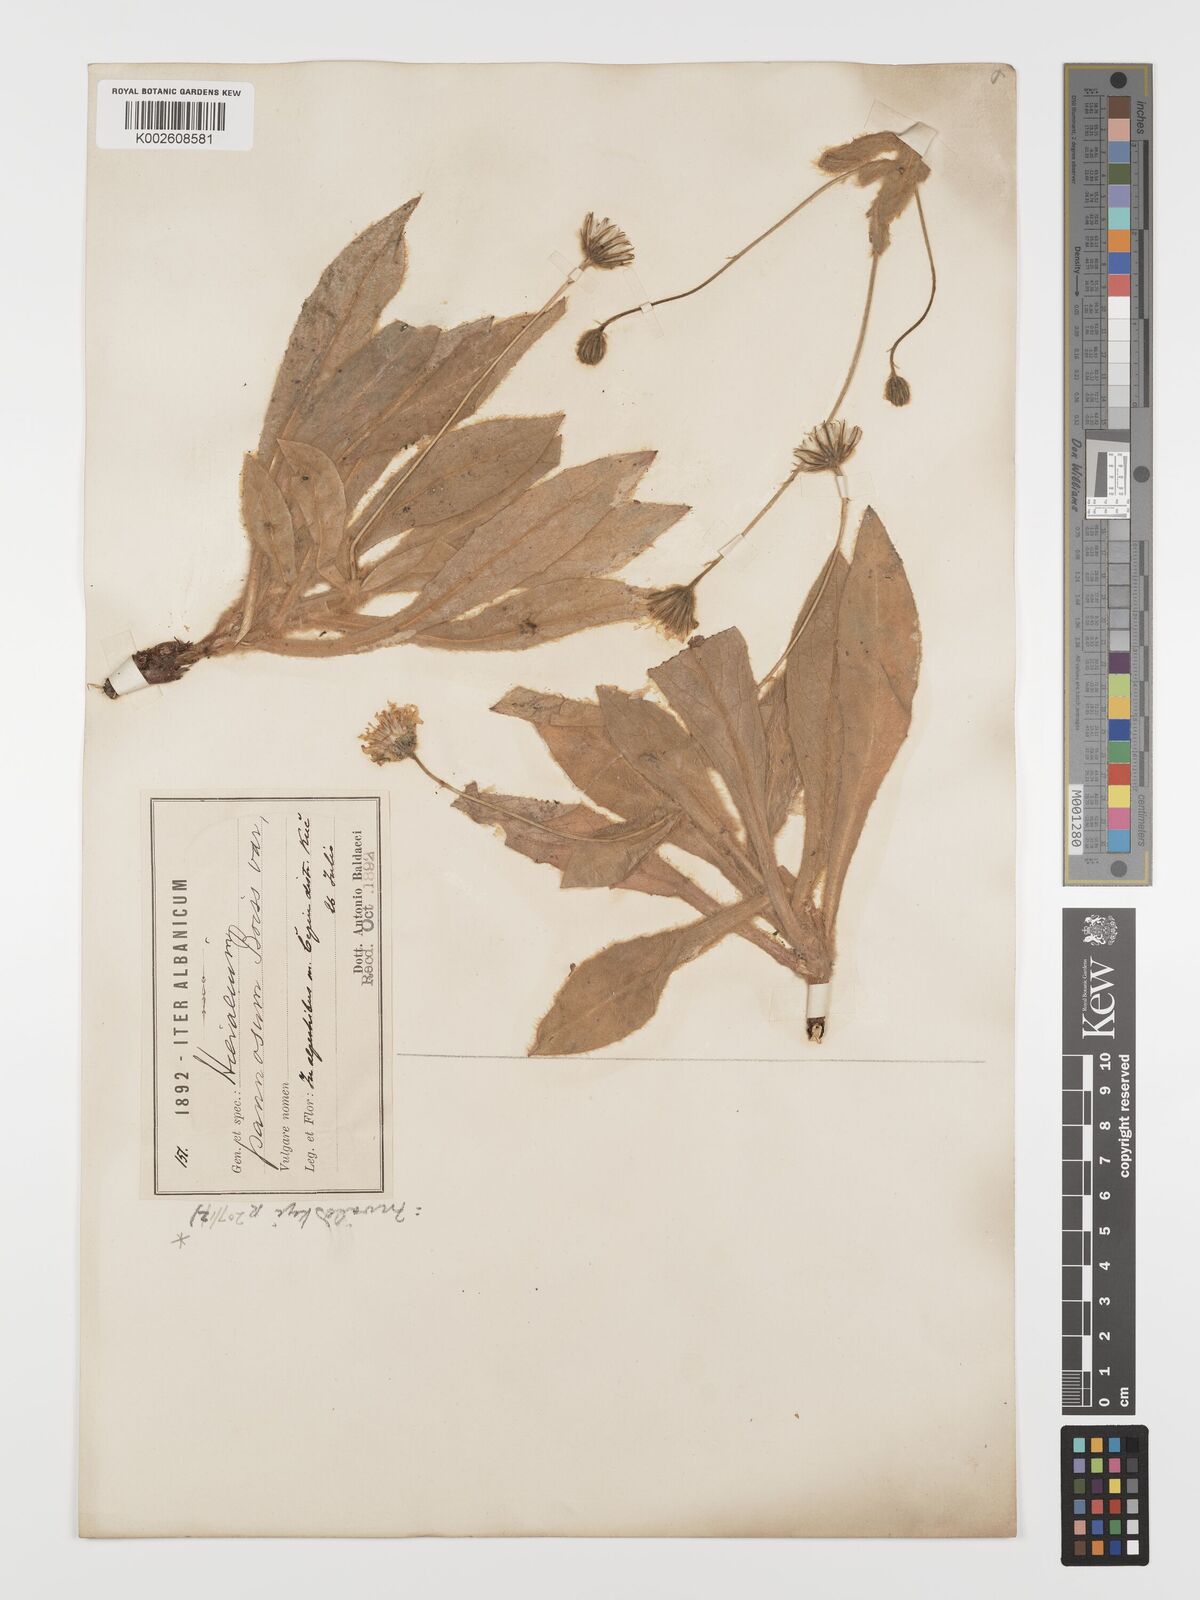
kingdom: Plantae
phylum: Tracheophyta
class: Magnoliopsida
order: Asterales
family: Asteraceae
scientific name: Asteraceae
